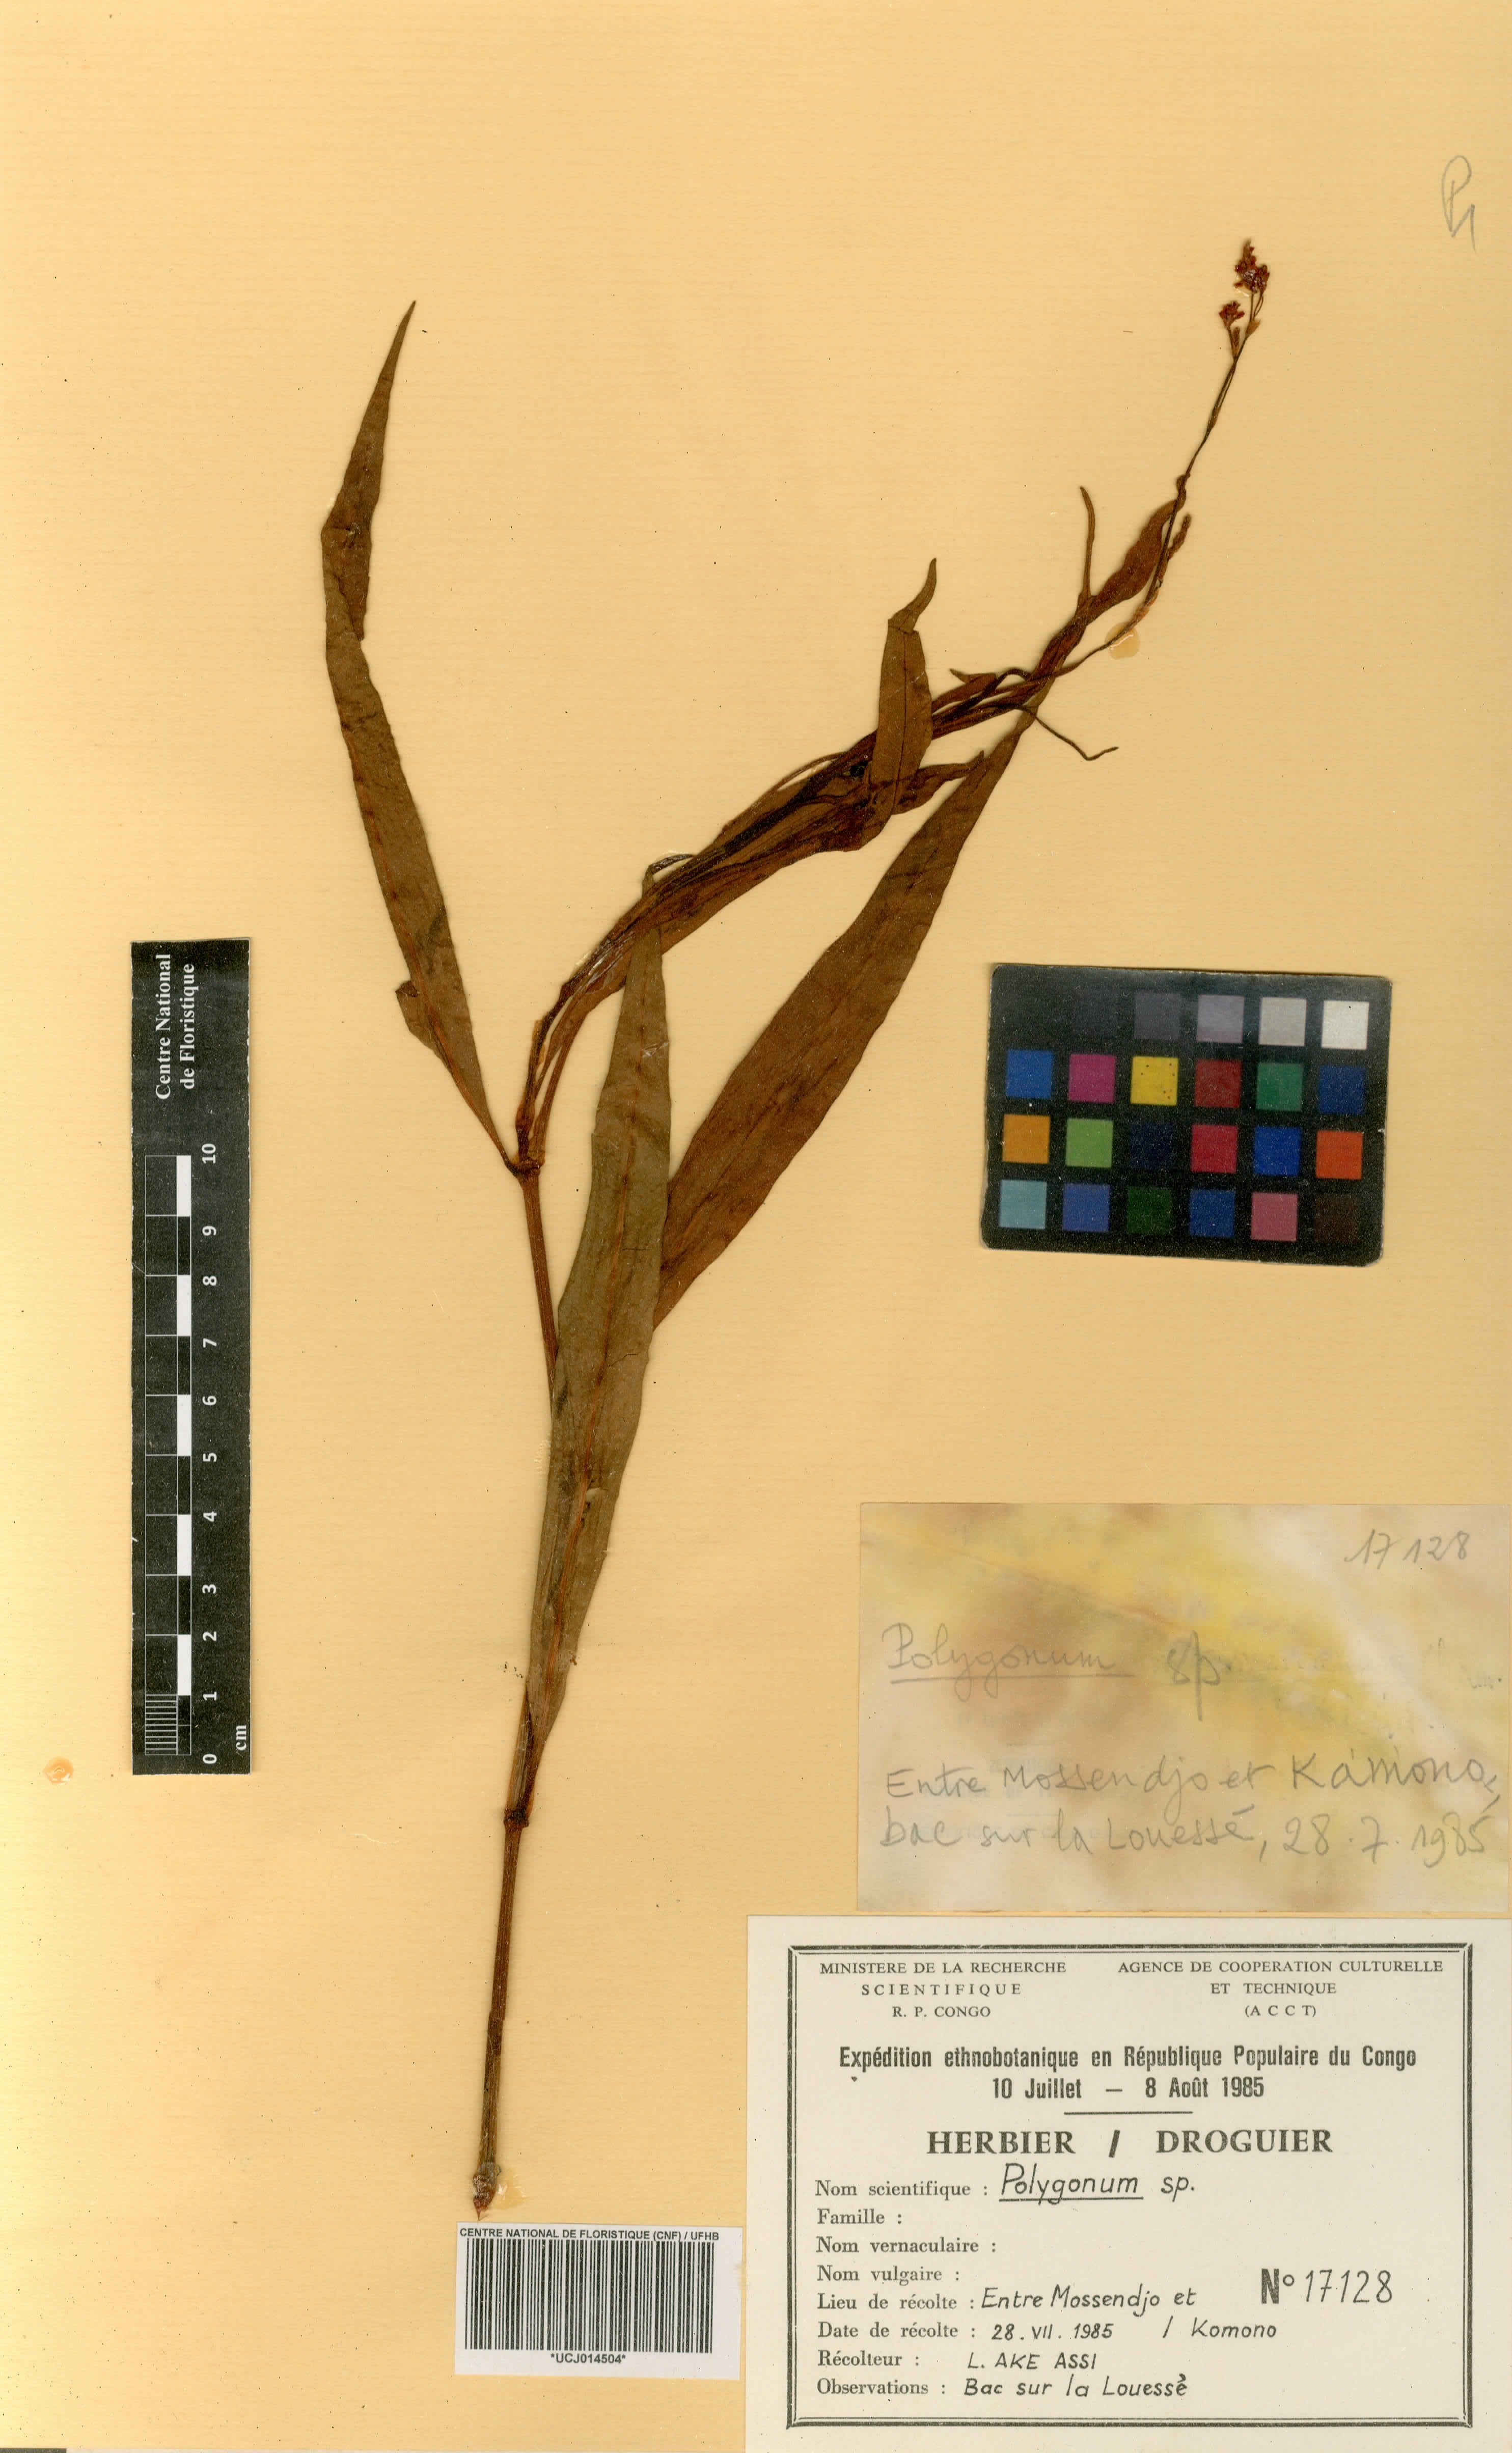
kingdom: Plantae
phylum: Tracheophyta
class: Magnoliopsida
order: Caryophyllales
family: Polygonaceae
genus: Polygonum
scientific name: Polygonum
